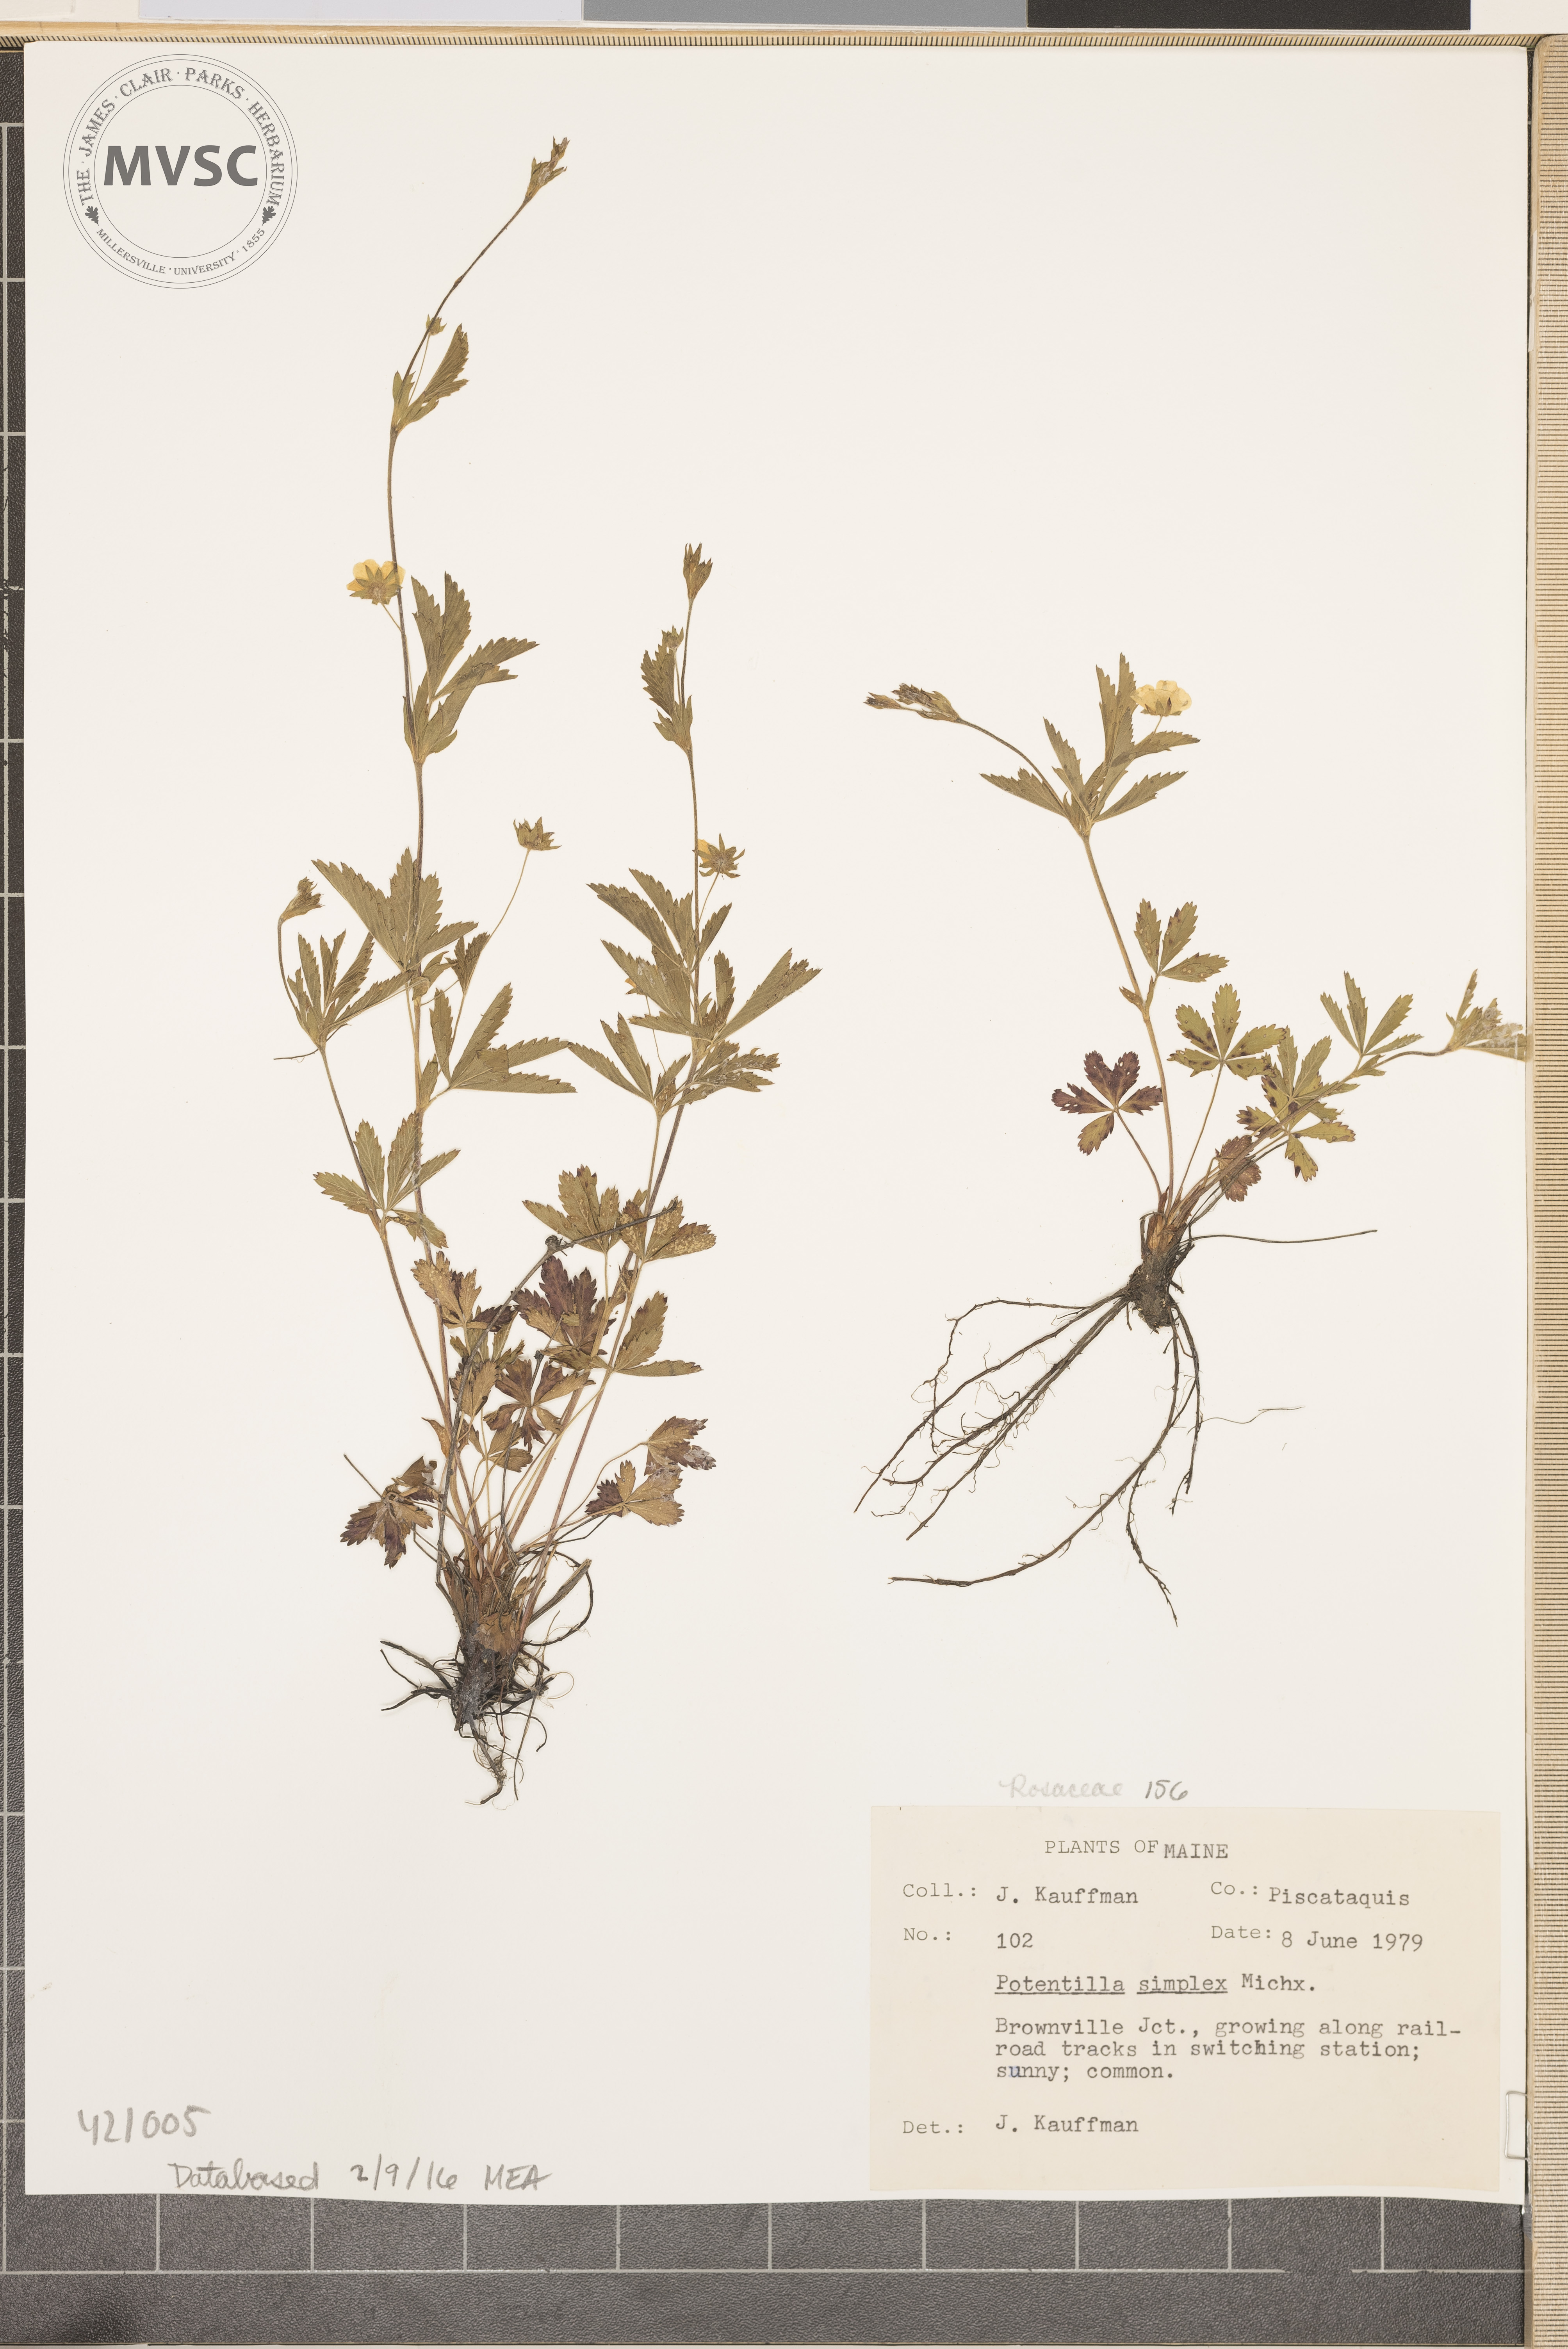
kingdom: Plantae
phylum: Tracheophyta
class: Magnoliopsida
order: Rosales
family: Rosaceae
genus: Potentilla
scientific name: Potentilla simplex
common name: Common Cinquefoil
